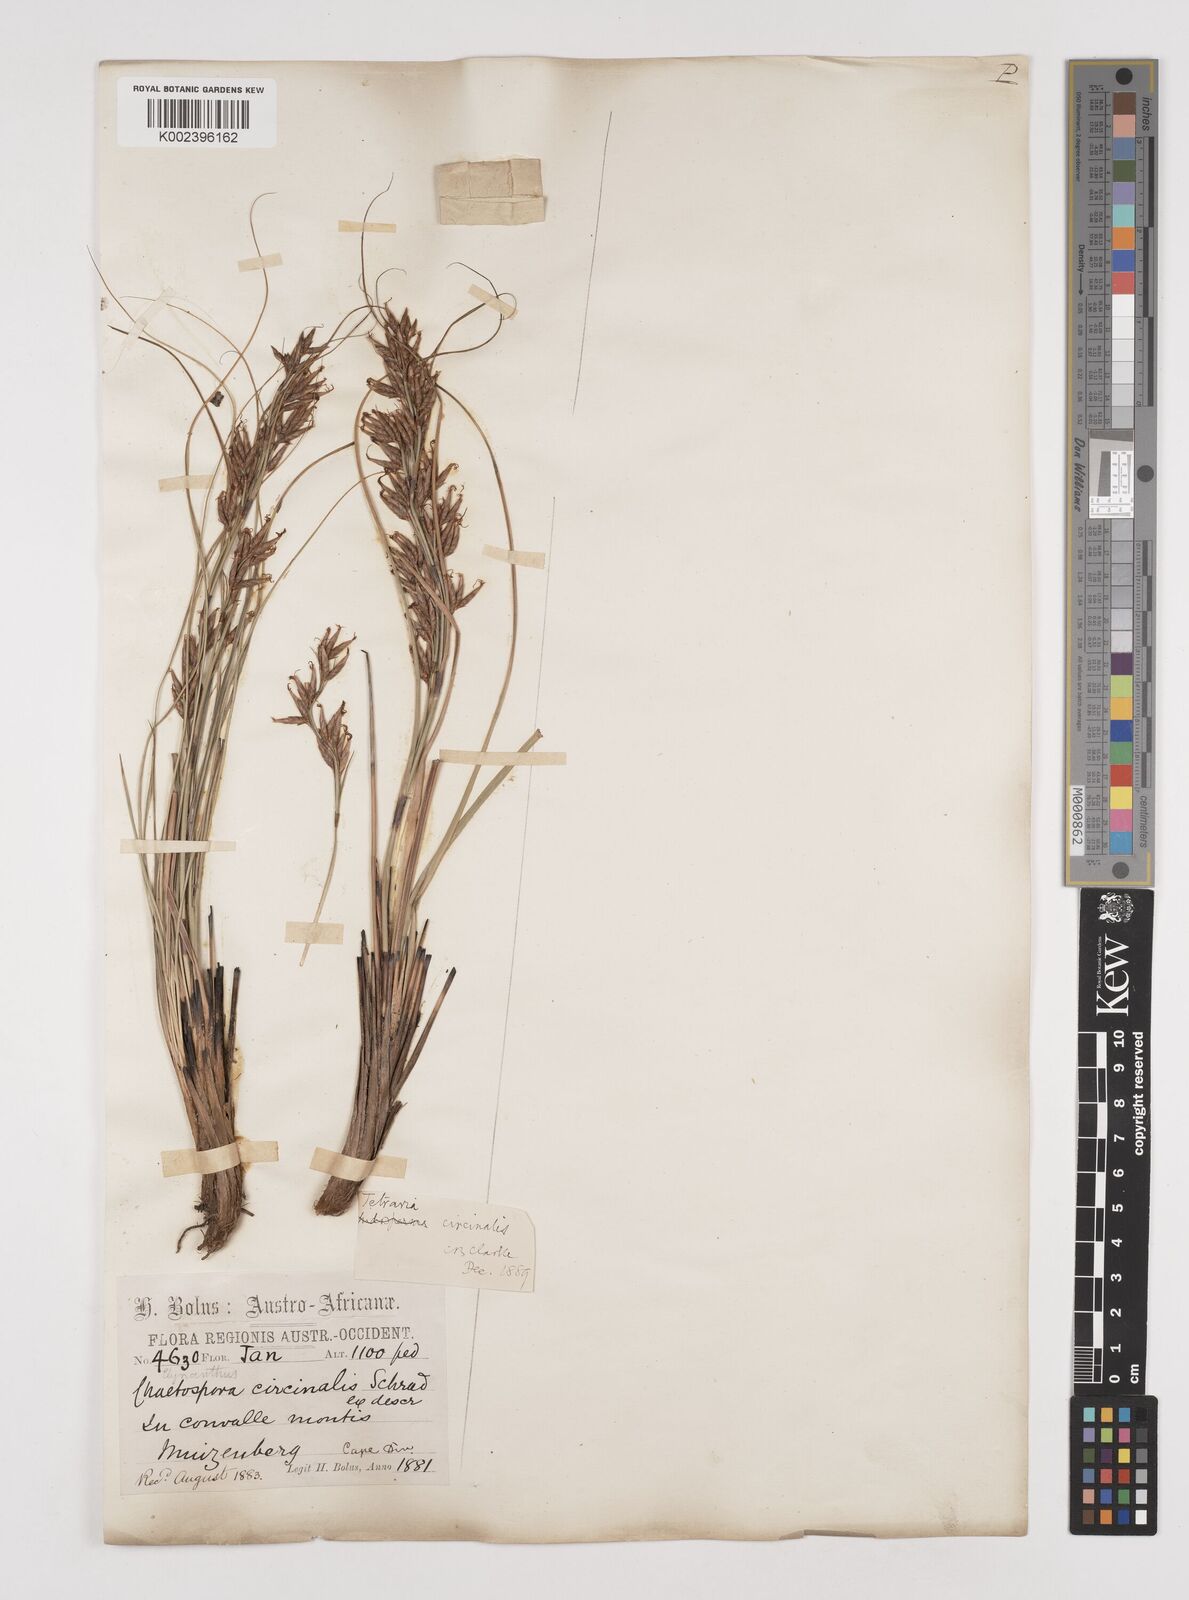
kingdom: Plantae
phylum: Tracheophyta
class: Liliopsida
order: Poales
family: Cyperaceae
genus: Tetraria
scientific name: Tetraria microstachys
